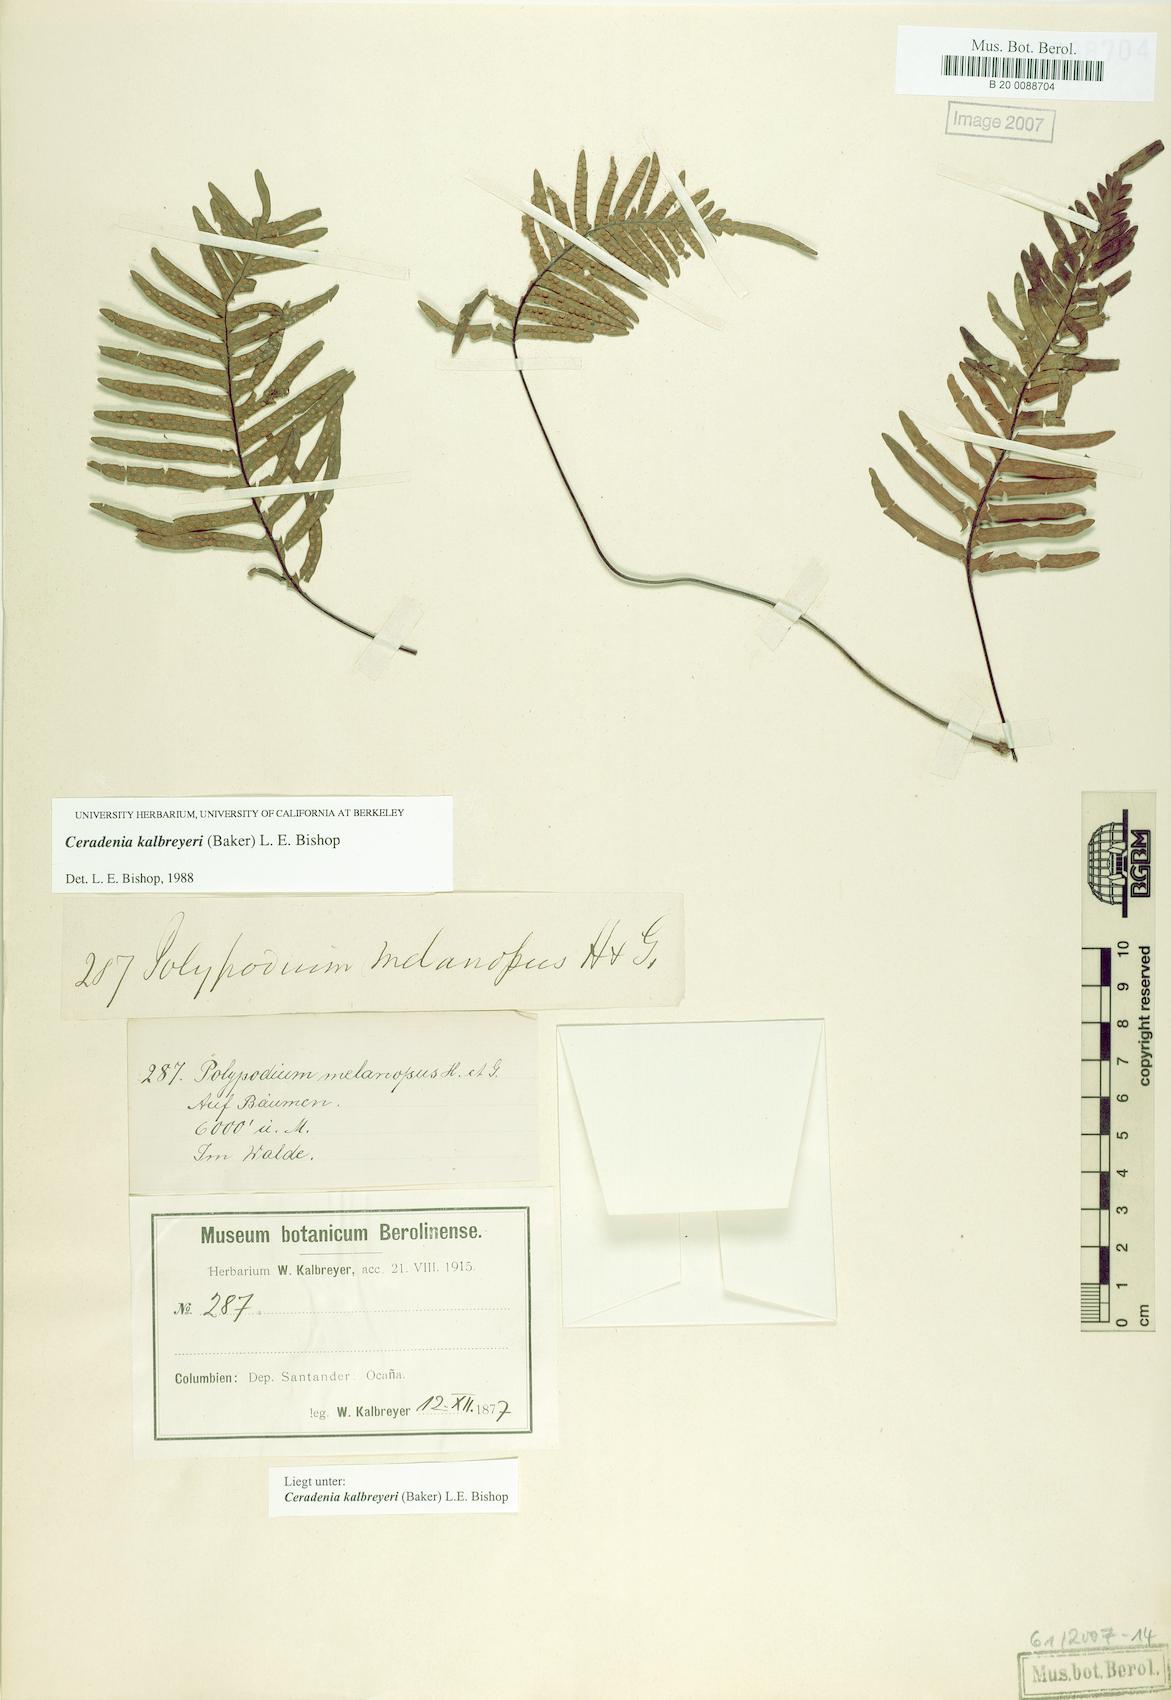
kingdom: Plantae
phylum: Tracheophyta
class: Polypodiopsida
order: Polypodiales
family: Polypodiaceae
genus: Ceradenia
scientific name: Ceradenia intonsa
